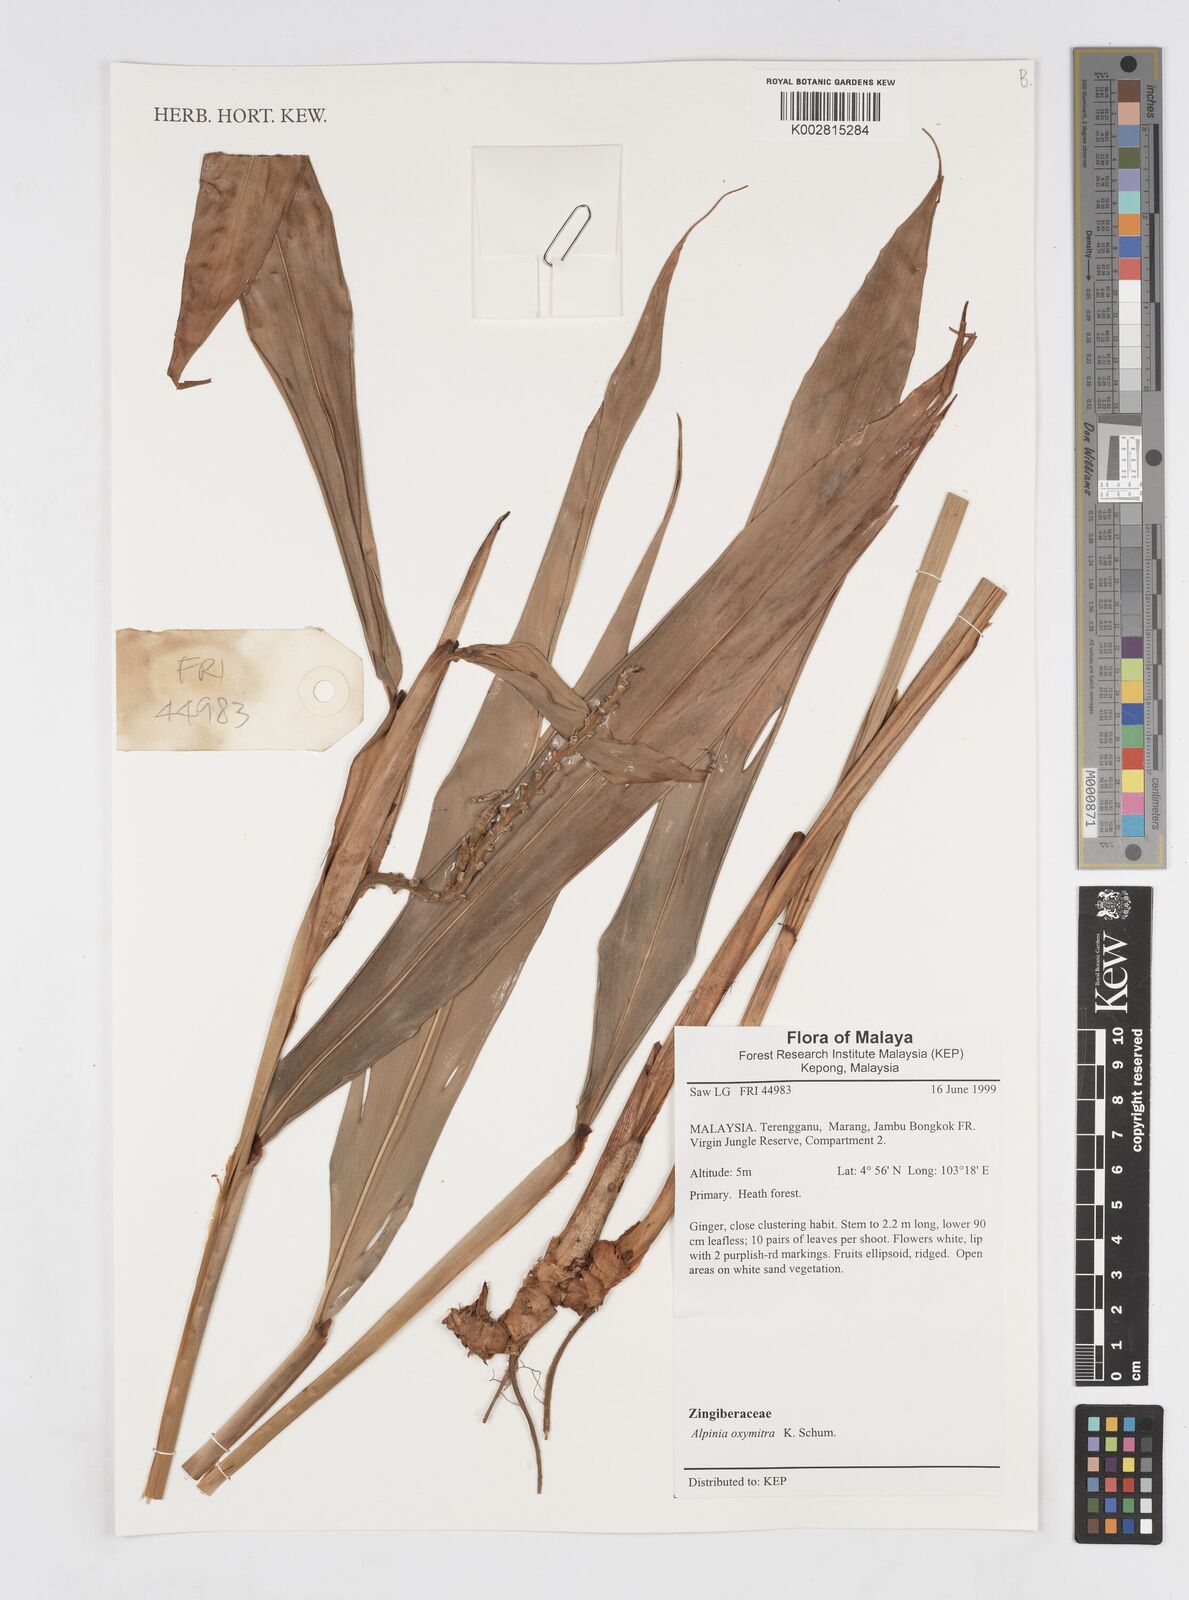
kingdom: Plantae
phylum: Tracheophyta
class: Liliopsida
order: Zingiberales
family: Zingiberaceae
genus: Alpinia
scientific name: Alpinia oxymitra
